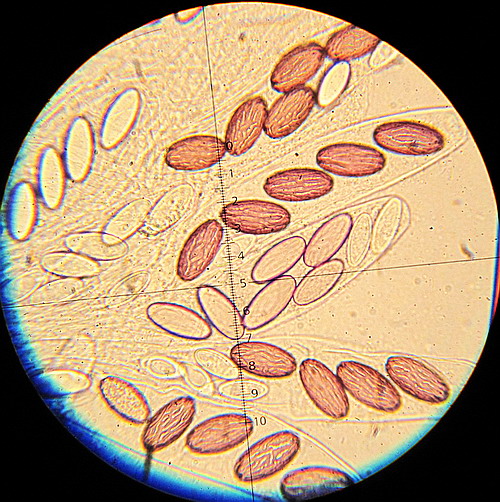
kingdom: Fungi
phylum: Ascomycota
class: Pezizomycetes
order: Pezizales
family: Ascobolaceae
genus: Ascobolus
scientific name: Ascobolus albidus
